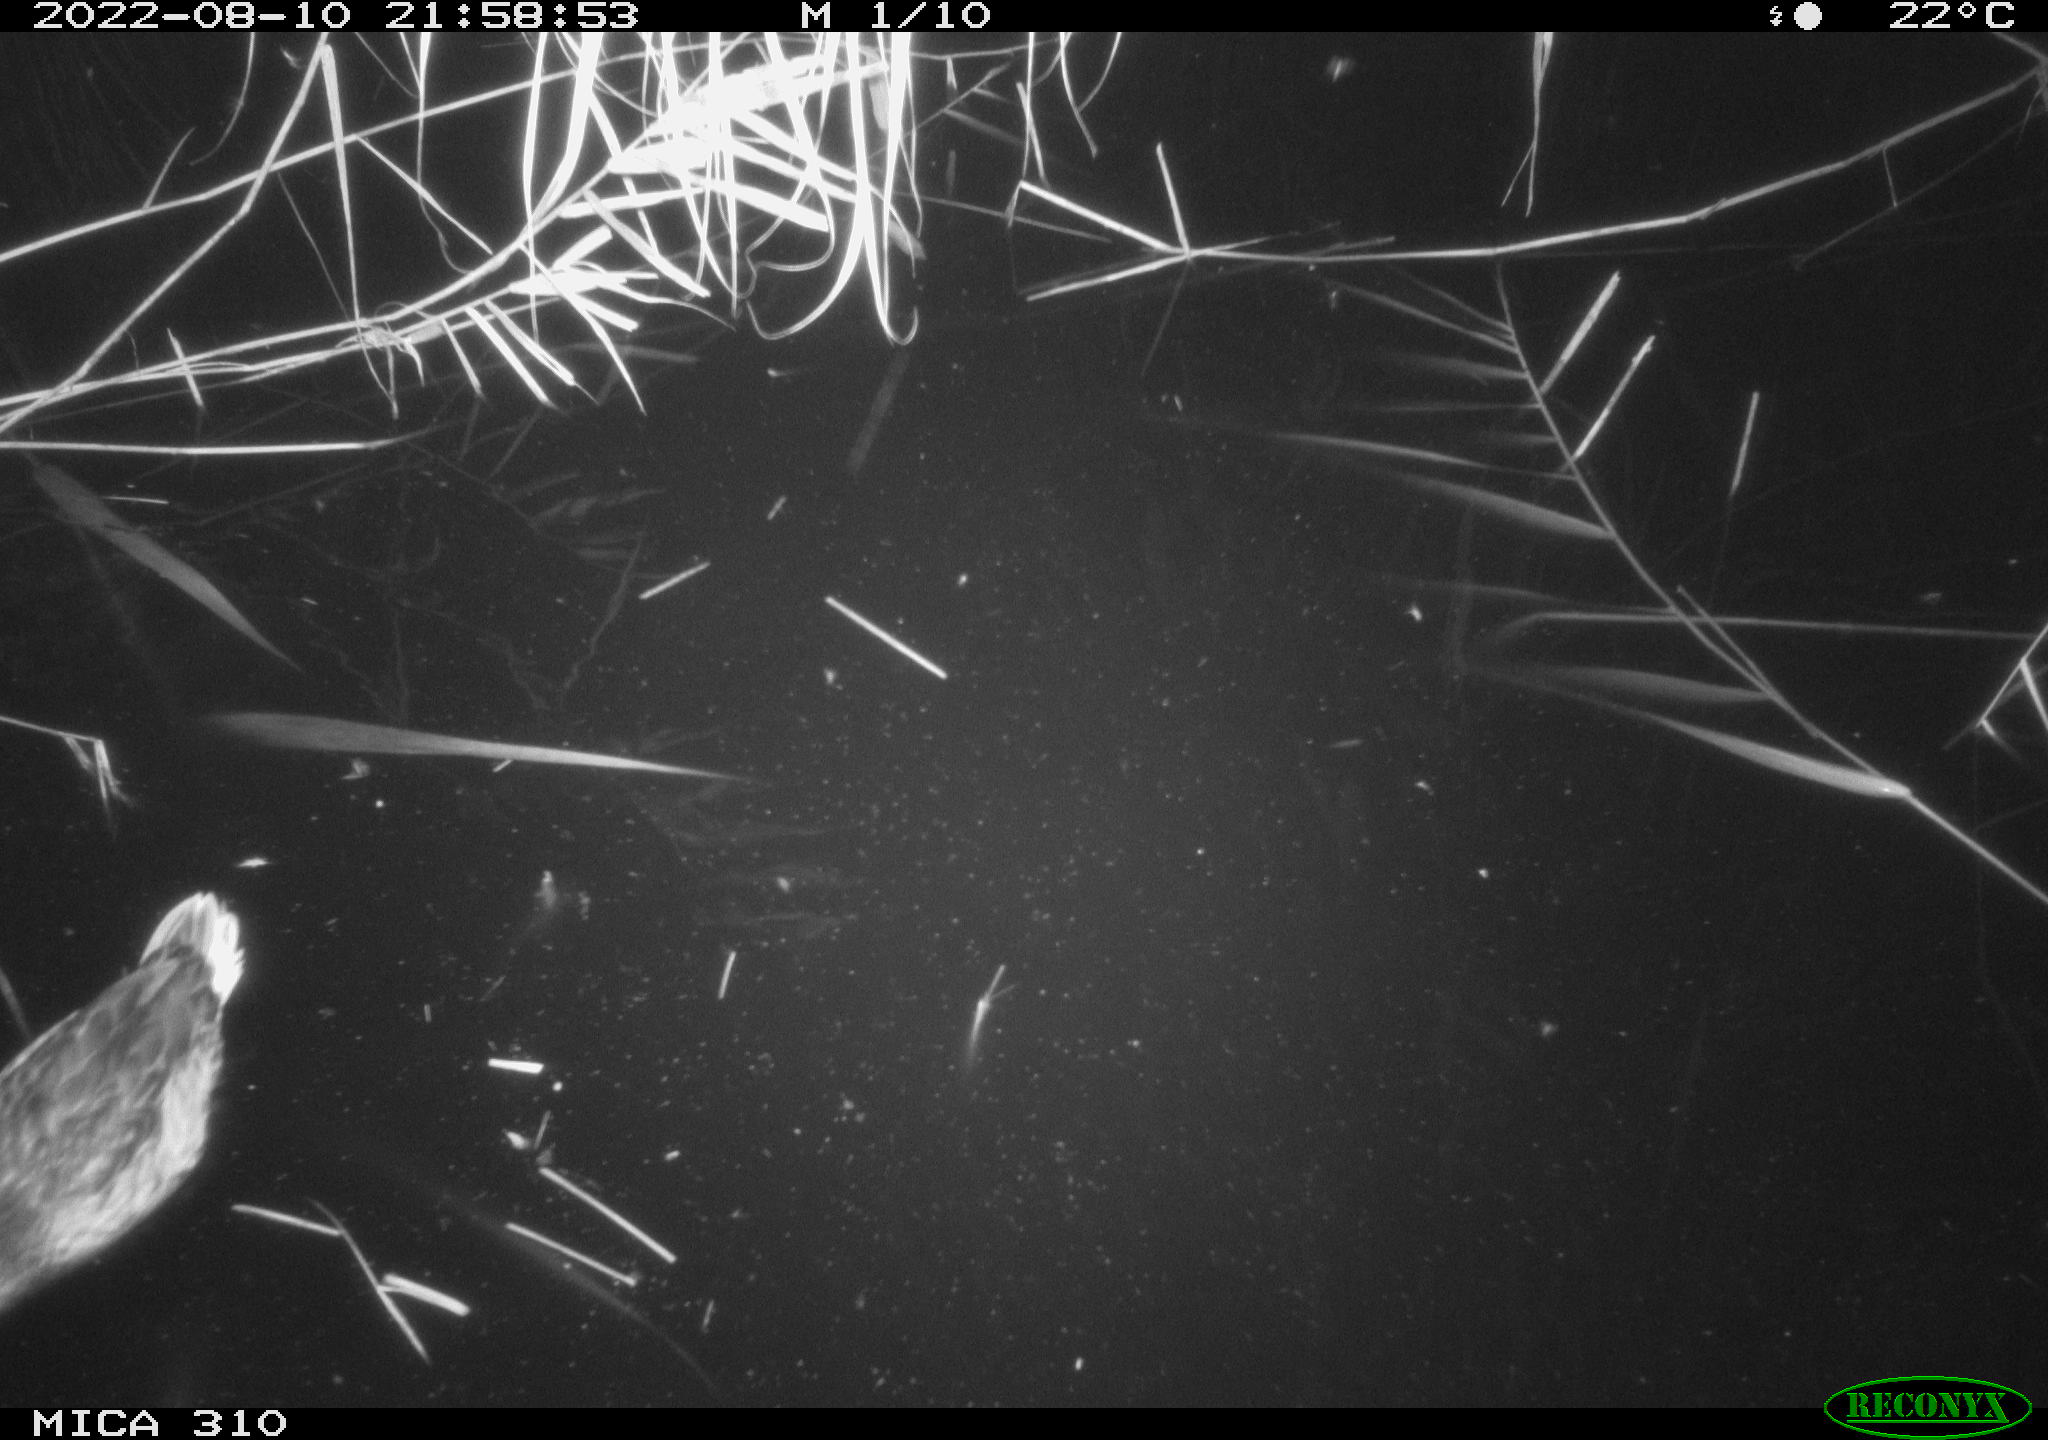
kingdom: Animalia
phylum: Chordata
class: Aves
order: Anseriformes
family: Anatidae
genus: Anas
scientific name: Anas platyrhynchos
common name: Mallard
